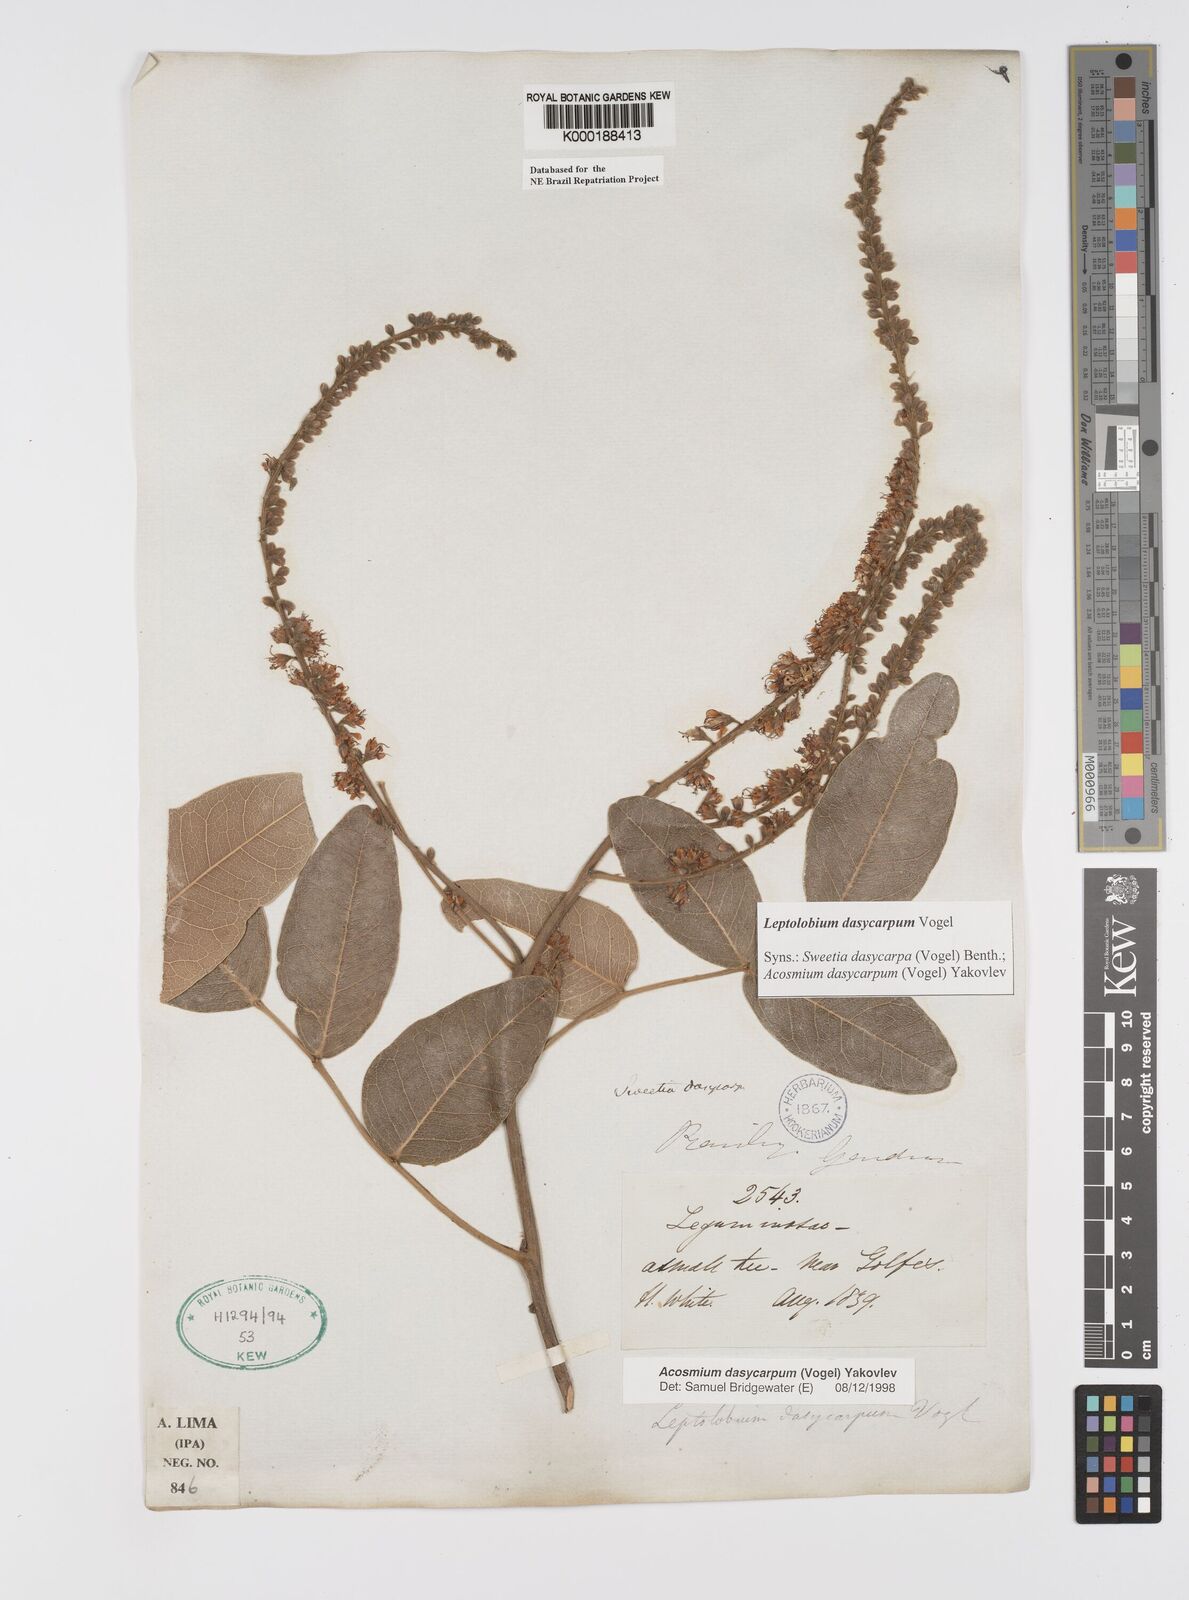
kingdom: Plantae
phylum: Tracheophyta
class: Magnoliopsida
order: Fabales
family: Fabaceae
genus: Leptolobium
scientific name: Leptolobium dasycarpum
